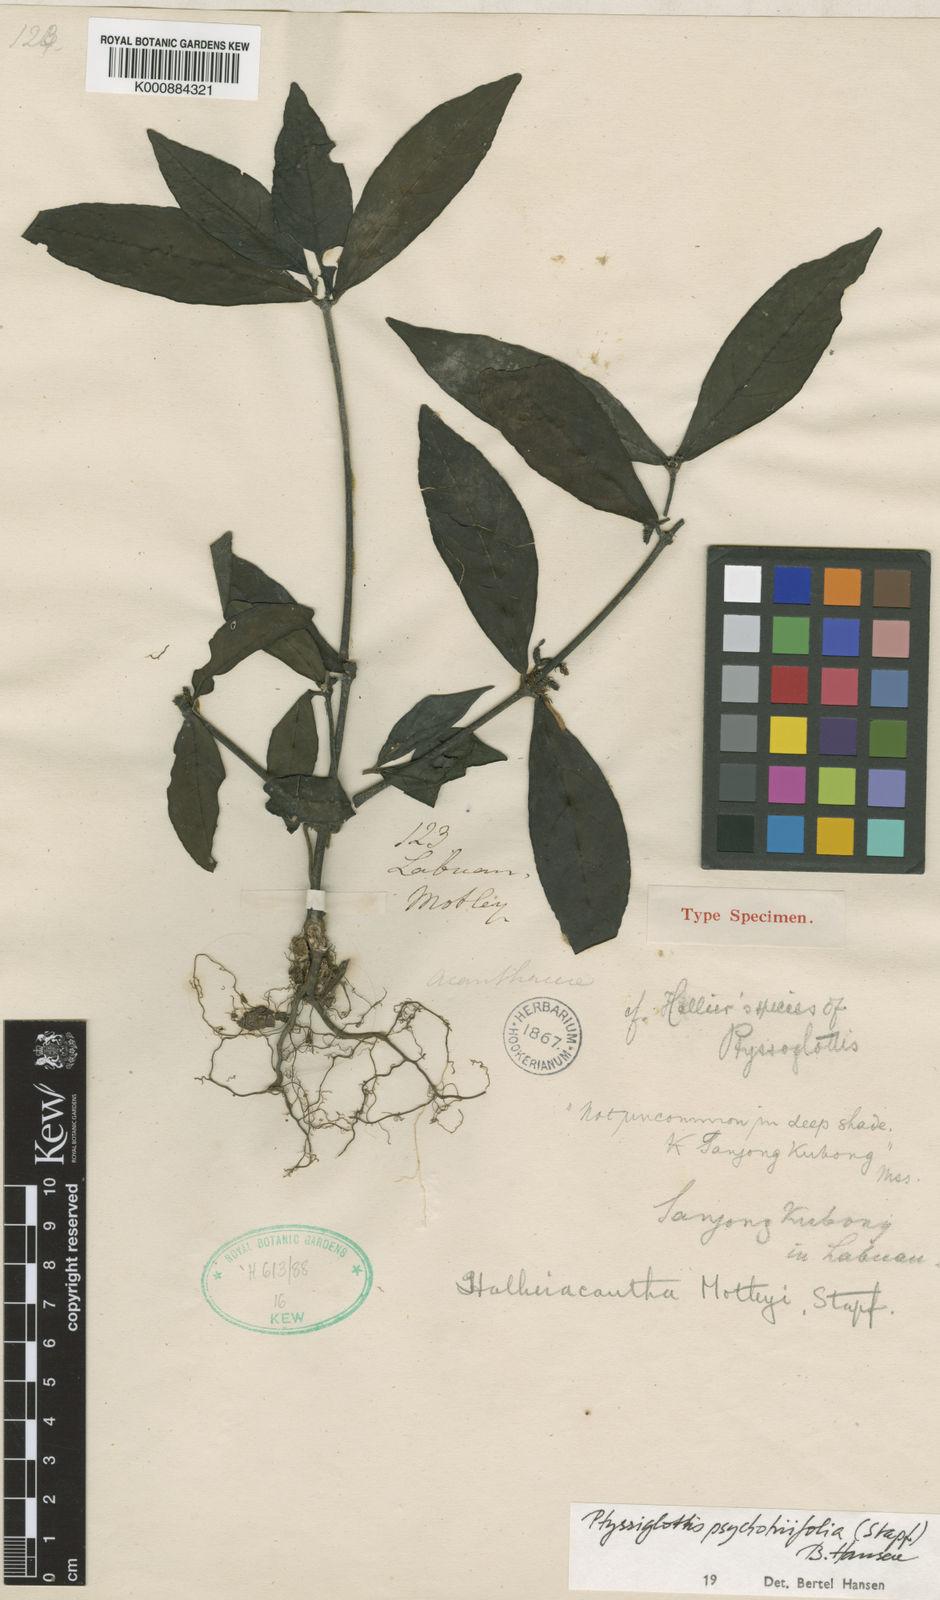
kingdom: Plantae
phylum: Tracheophyta
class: Magnoliopsida
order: Lamiales
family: Acanthaceae
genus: Ptyssiglottis
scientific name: Ptyssiglottis psychotriifolia
